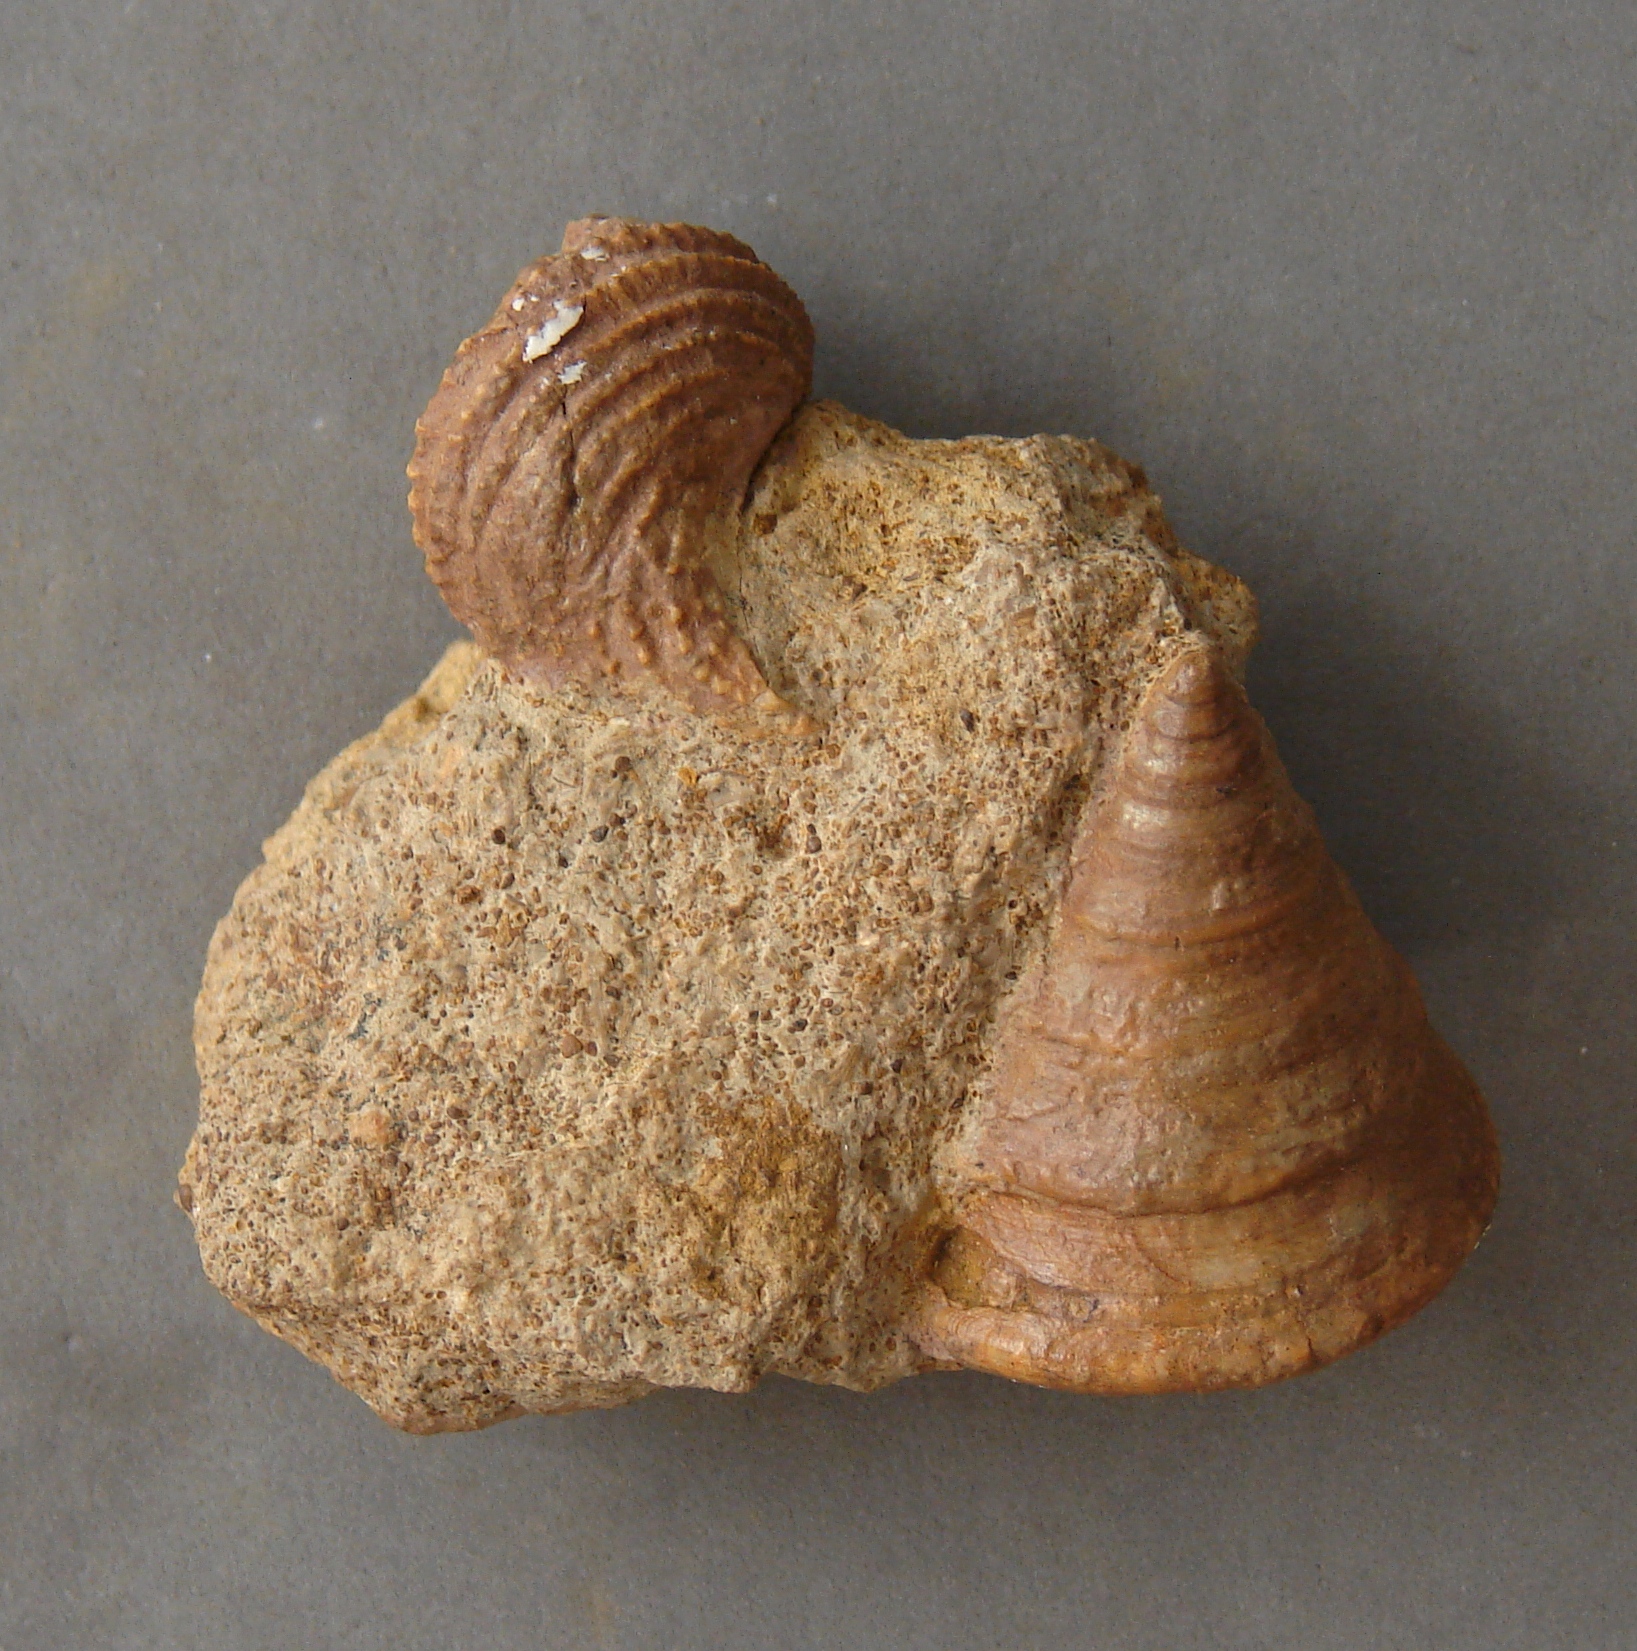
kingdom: Animalia
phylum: Mollusca
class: Gastropoda
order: Pleurotomariida
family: Pleurotomariidae
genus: Pyrgotrochus
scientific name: Pyrgotrochus elongatus
